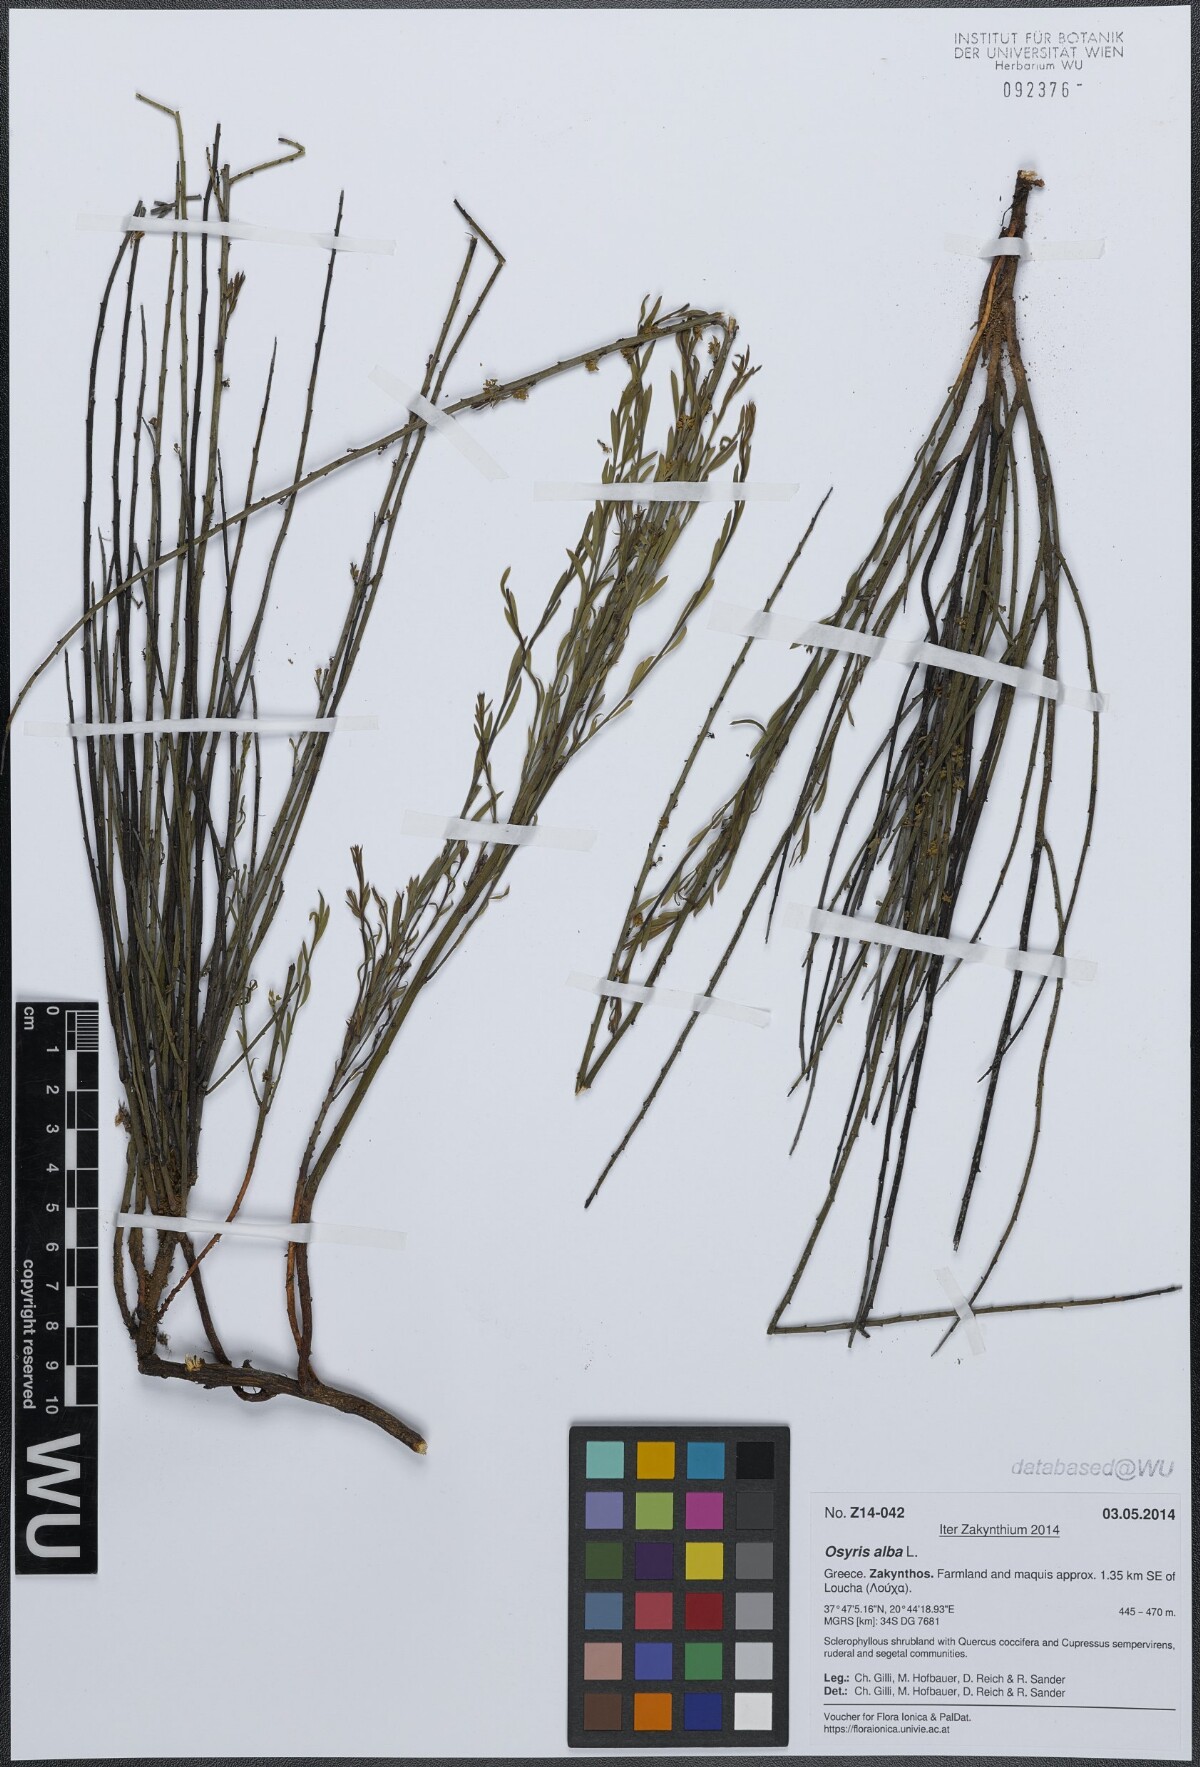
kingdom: Plantae
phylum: Tracheophyta
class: Magnoliopsida
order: Santalales
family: Santalaceae
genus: Osyris
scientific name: Osyris alba
